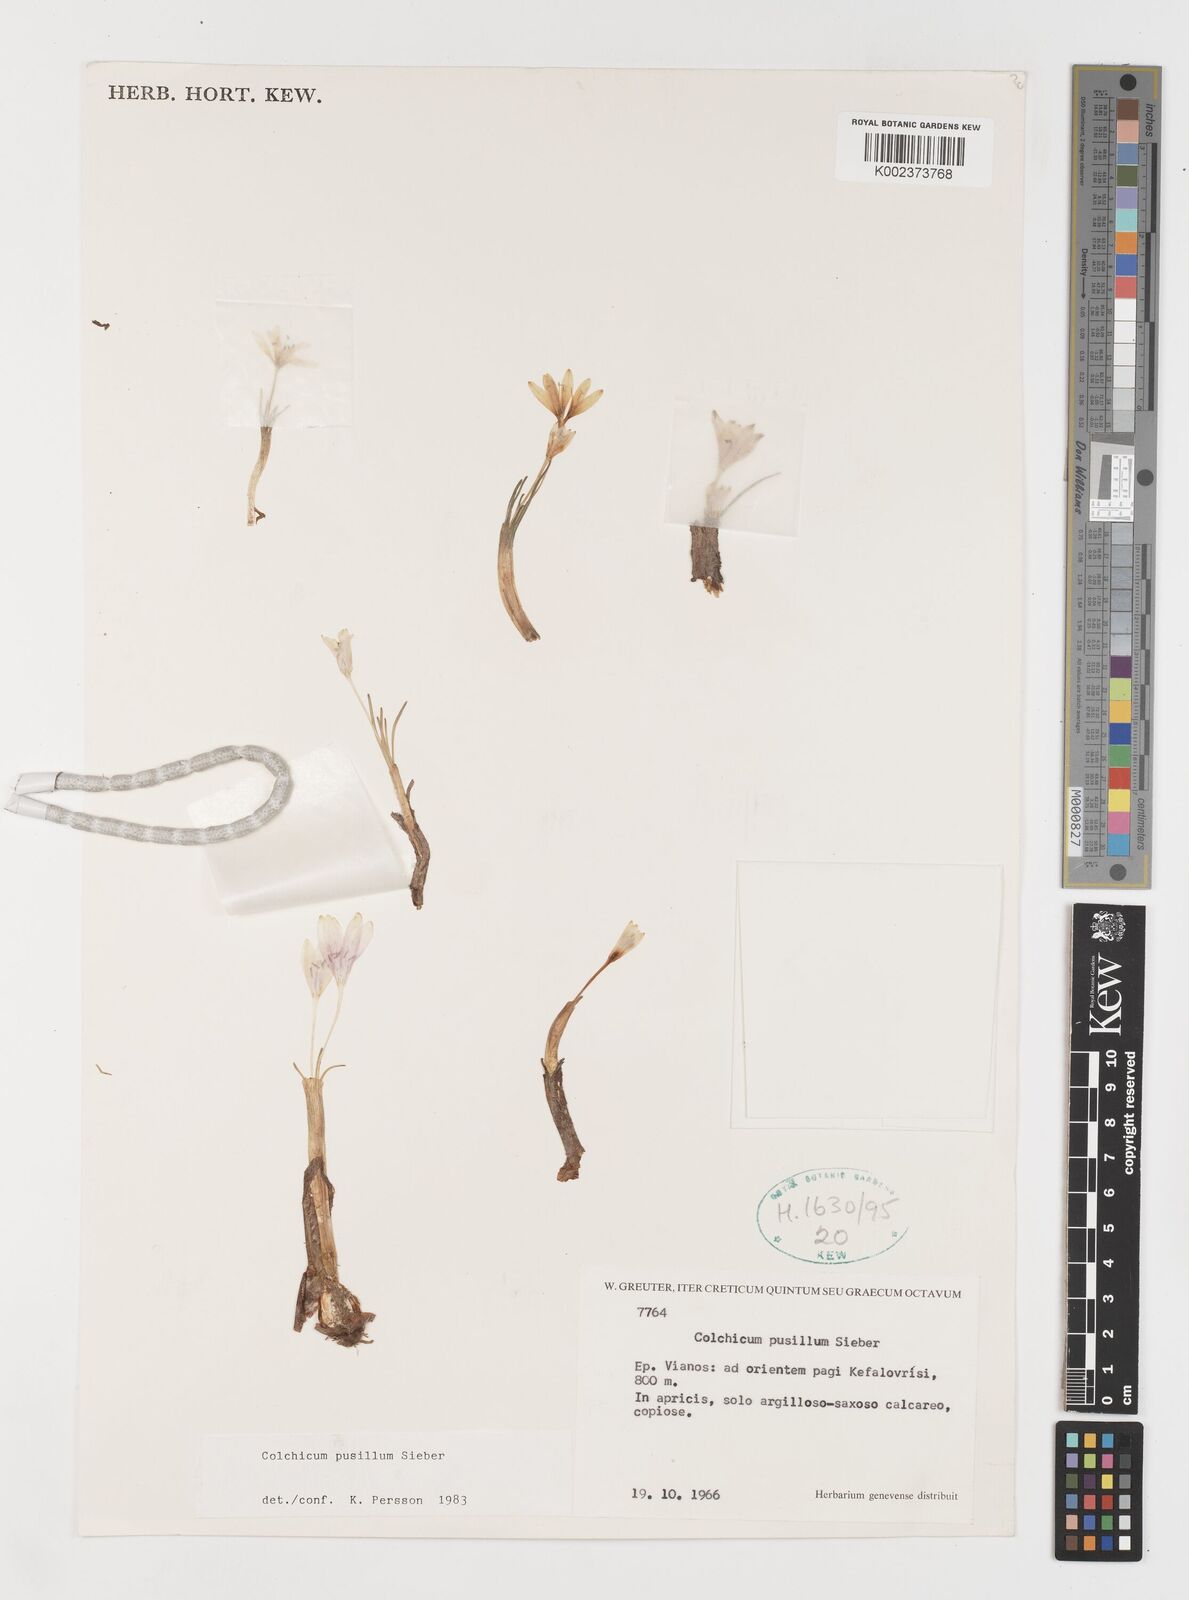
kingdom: Plantae
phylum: Tracheophyta
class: Liliopsida
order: Liliales
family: Colchicaceae
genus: Colchicum
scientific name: Colchicum pusillum
